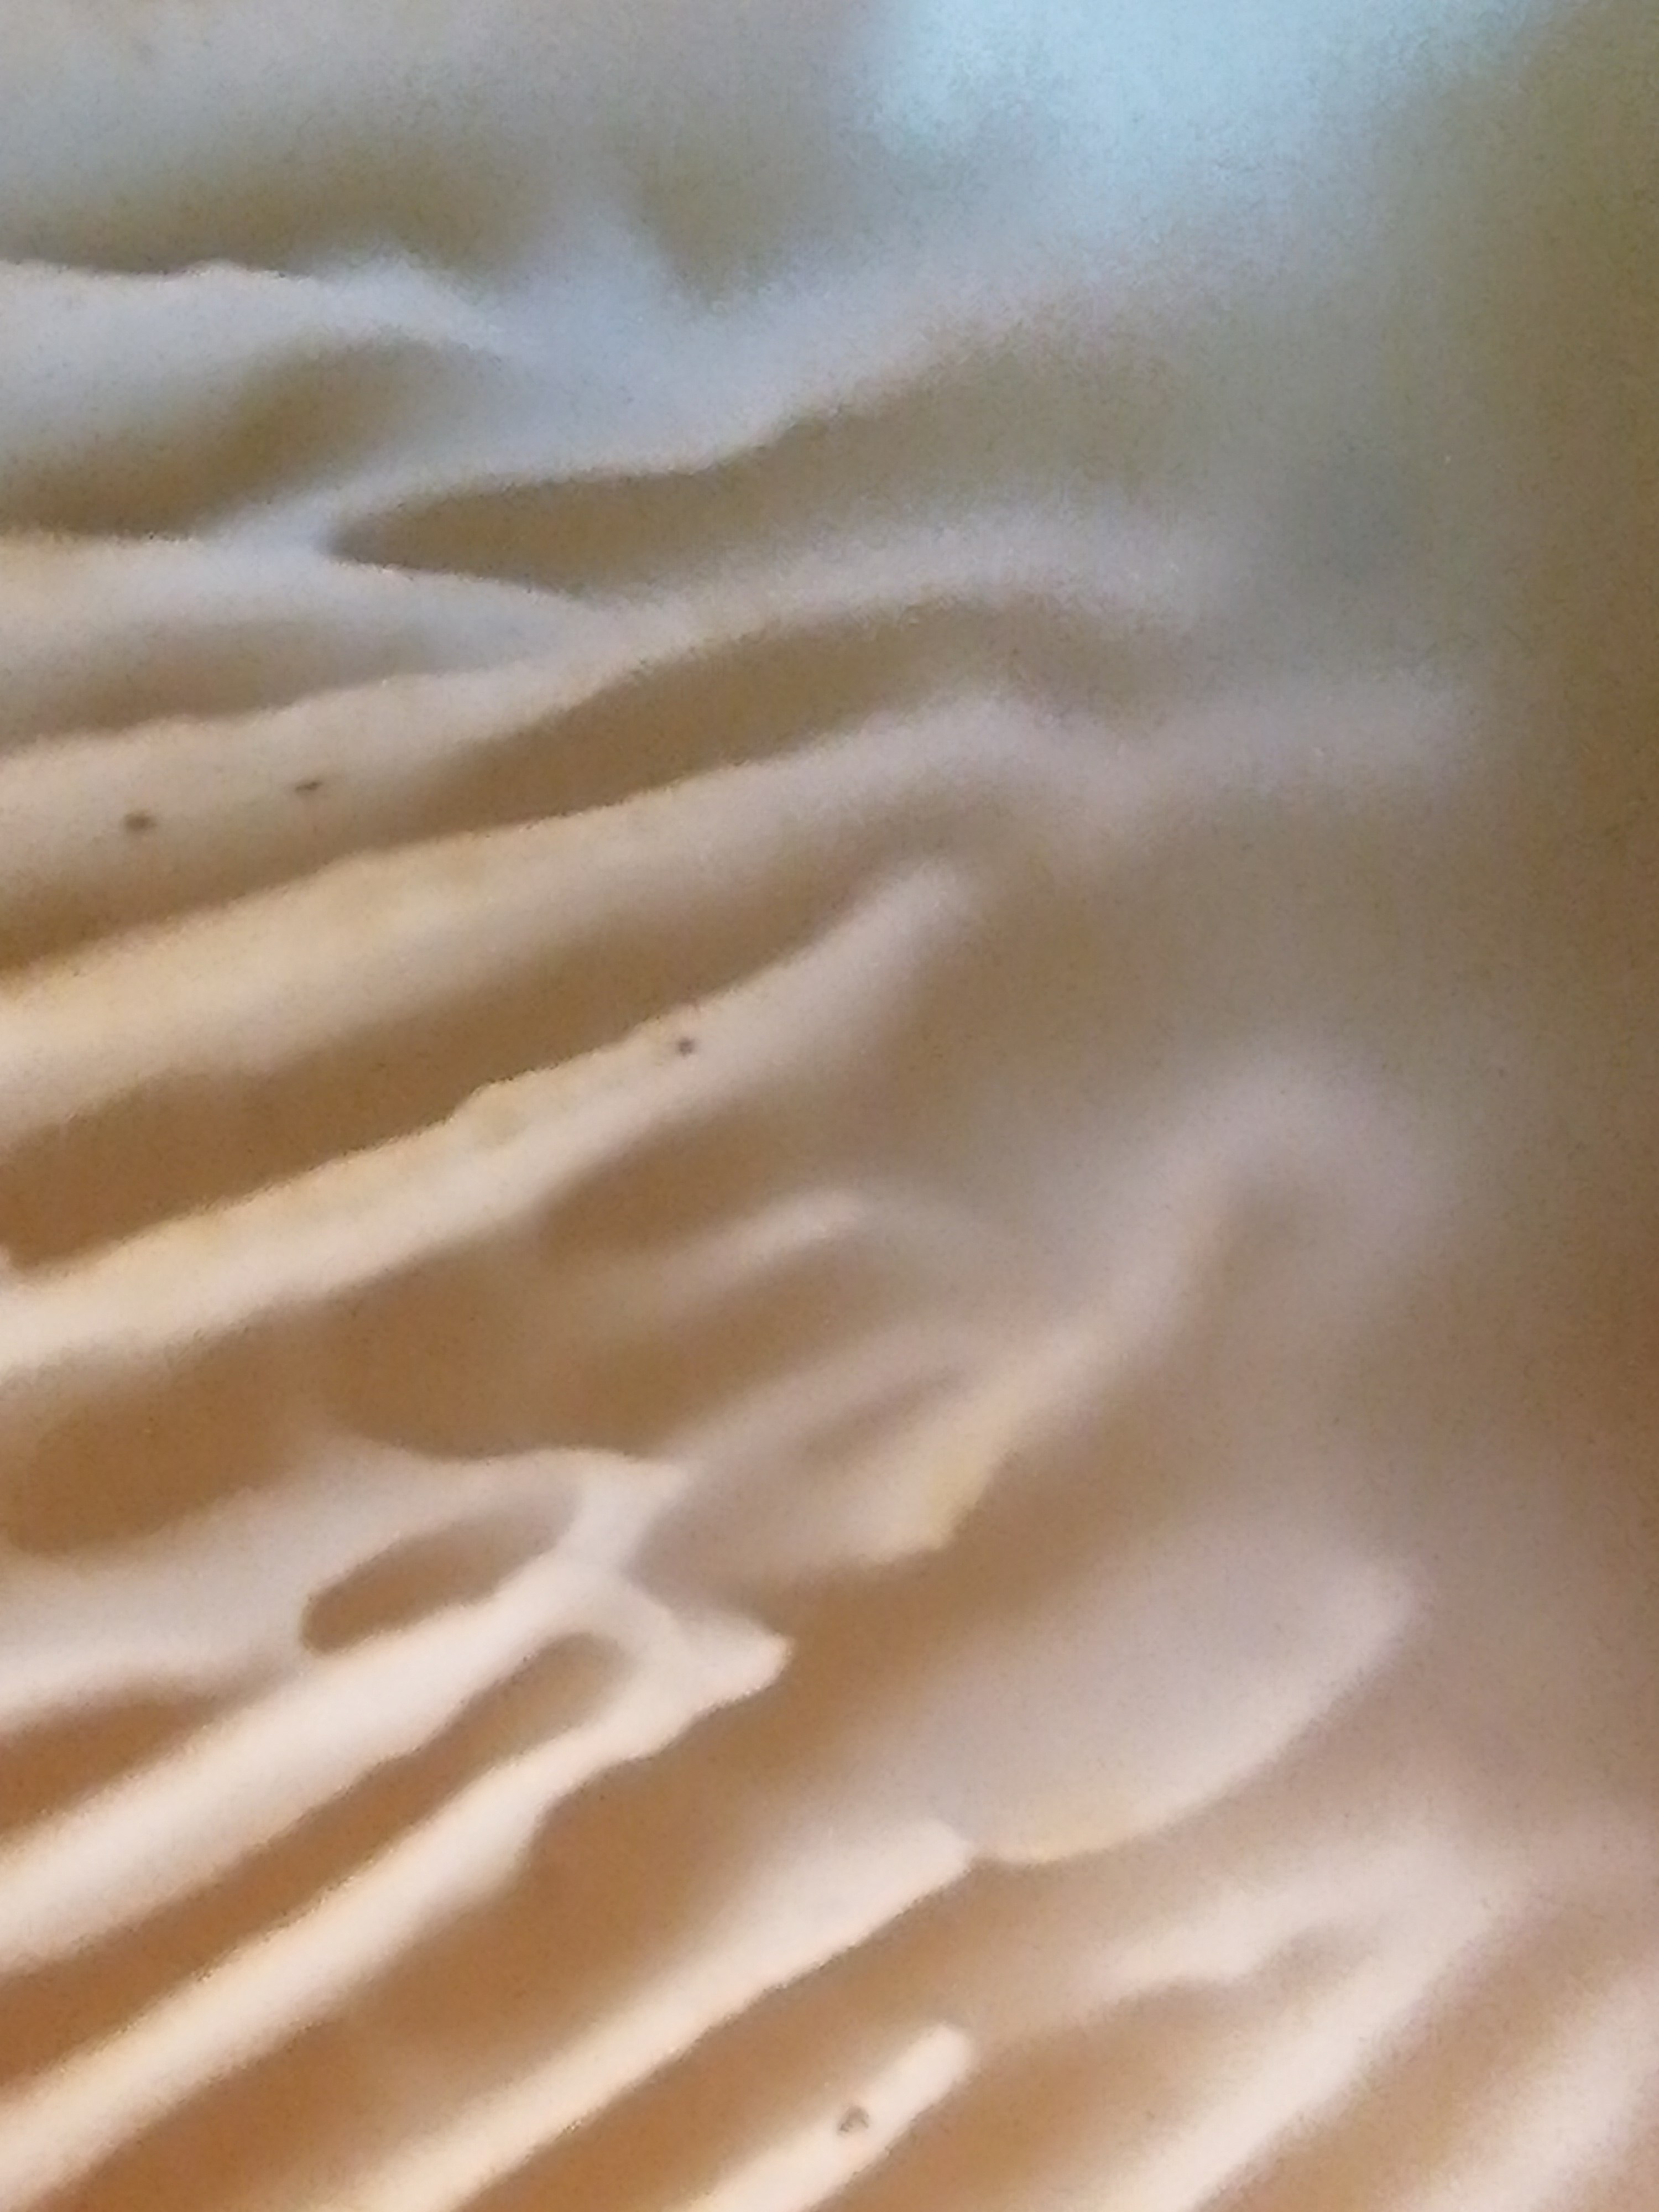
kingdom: Fungi
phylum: Basidiomycota
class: Agaricomycetes
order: Agaricales
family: Agaricaceae
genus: Echinoderma
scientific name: Echinoderma asperum
